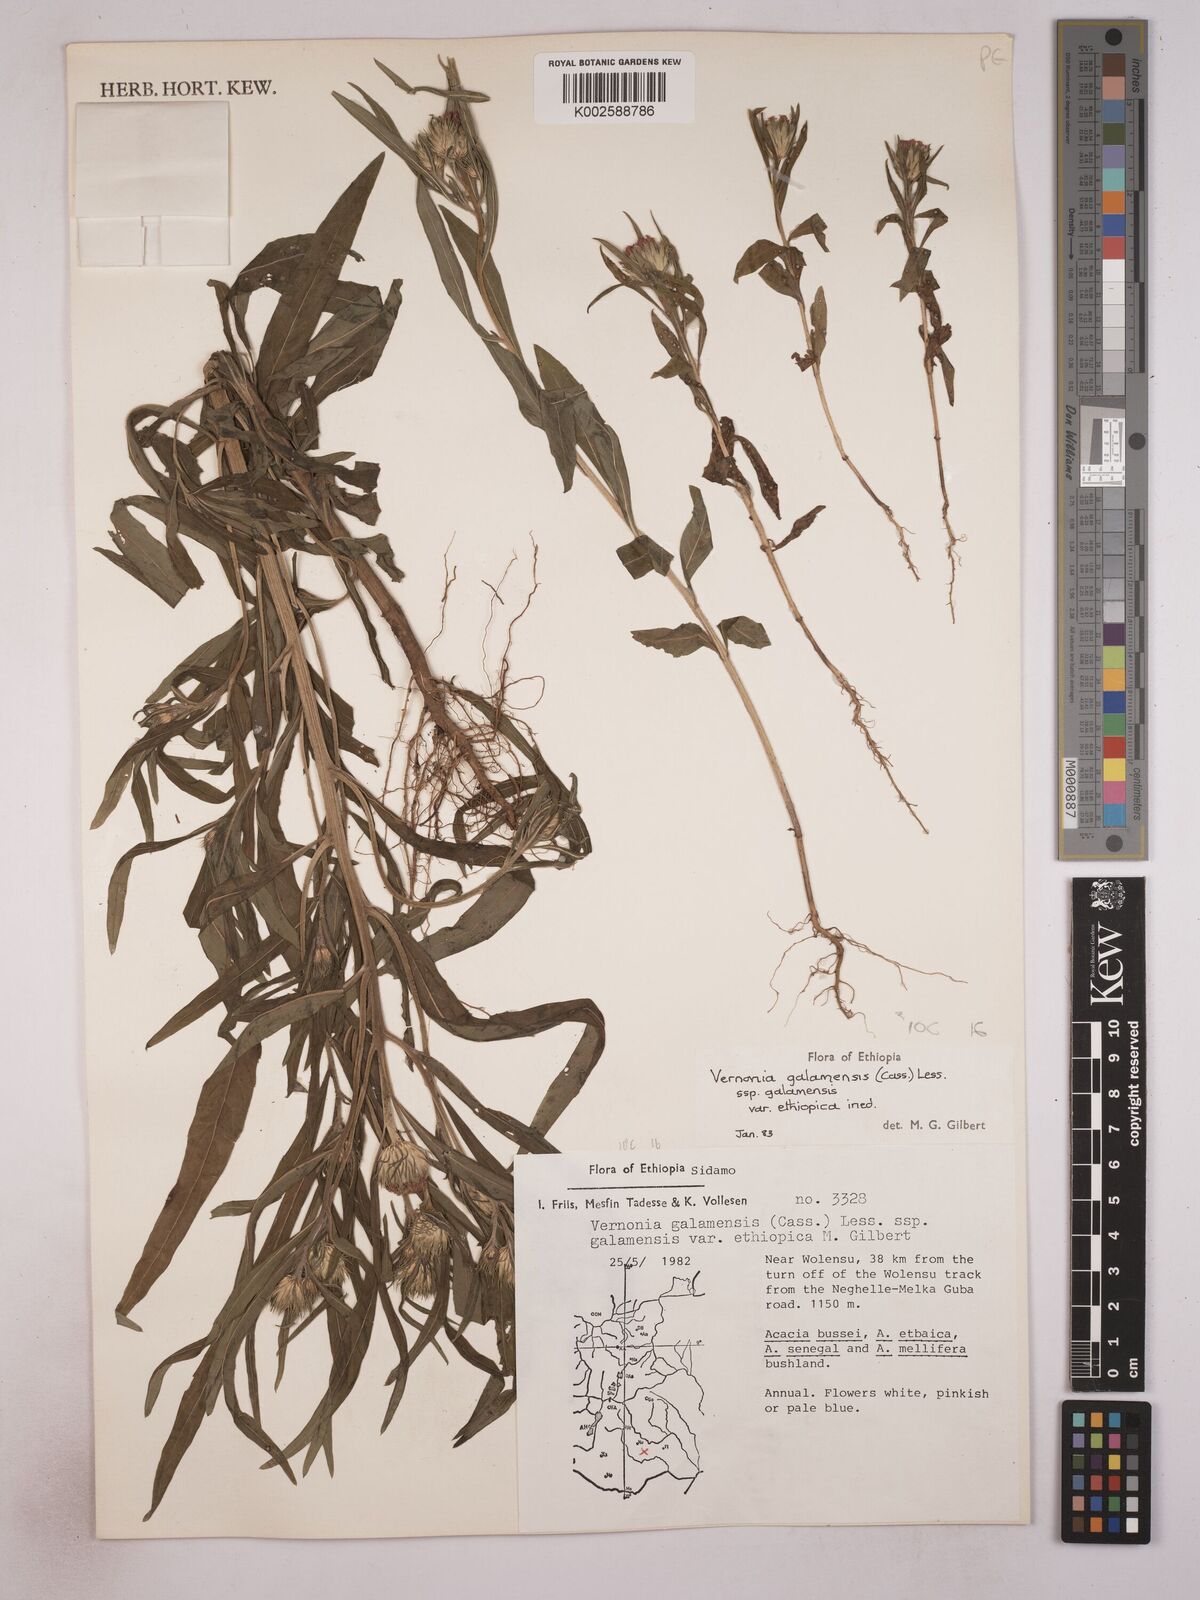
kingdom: Plantae
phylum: Tracheophyta
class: Magnoliopsida
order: Asterales
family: Asteraceae
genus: Vernonia
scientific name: Vernonia galamensis
